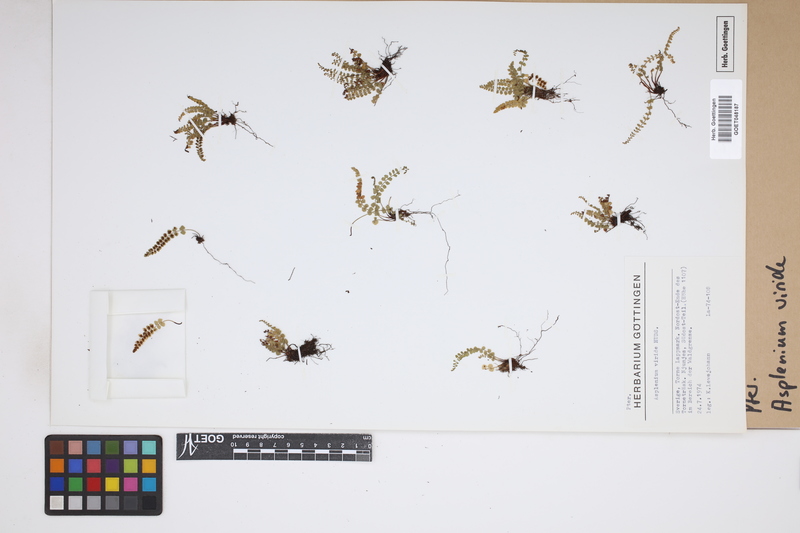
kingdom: Plantae
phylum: Tracheophyta
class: Polypodiopsida
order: Polypodiales
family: Aspleniaceae
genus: Asplenium
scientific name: Asplenium viride
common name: Green spleenwort
